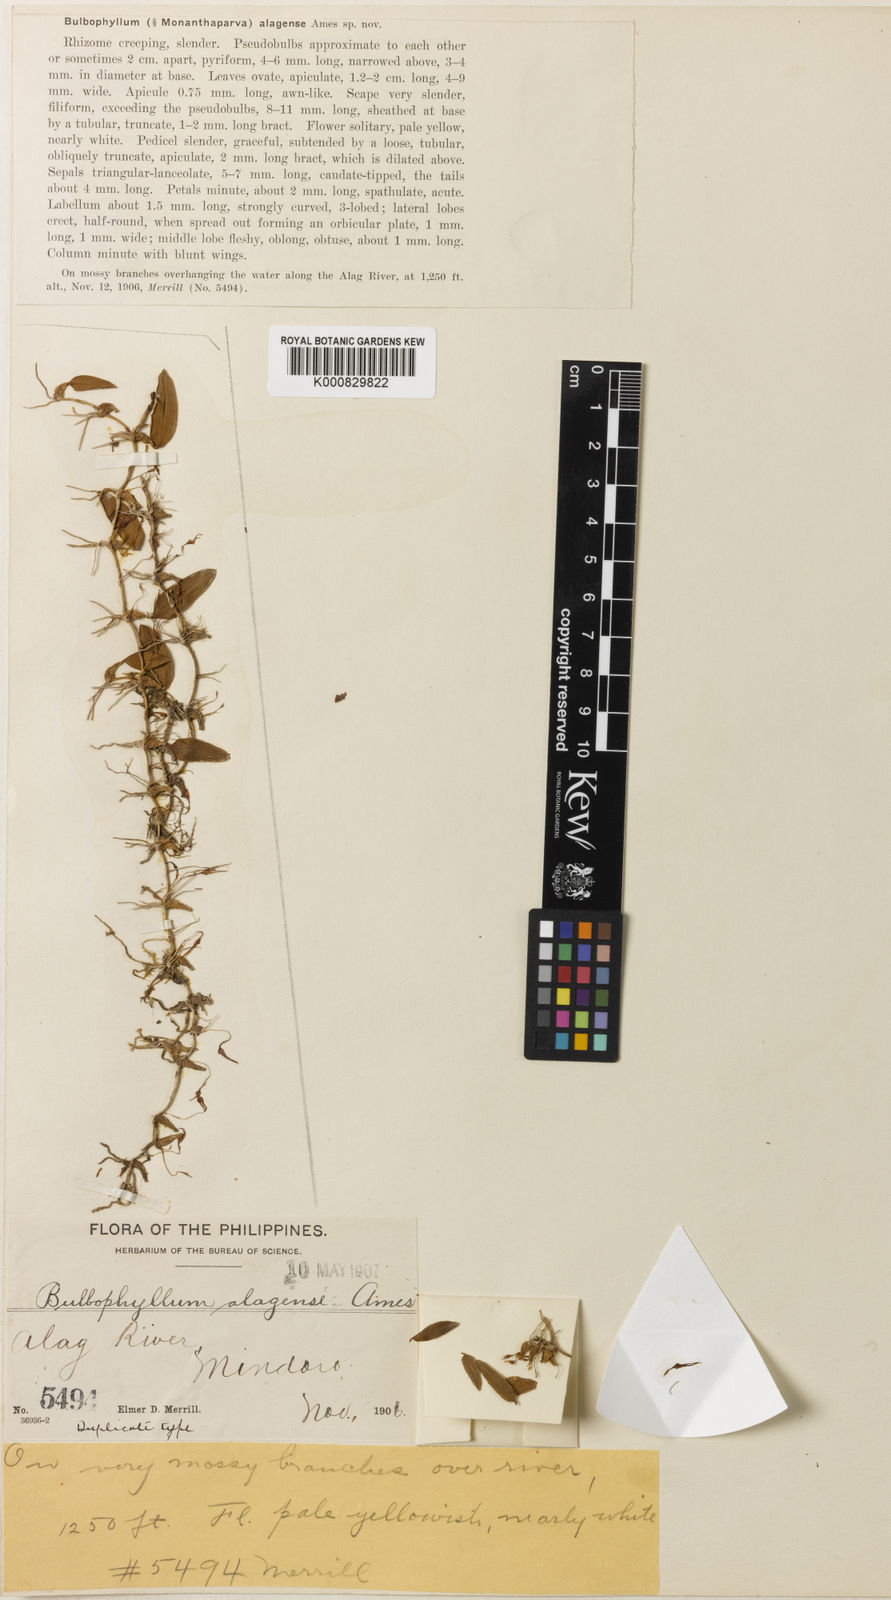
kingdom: Plantae
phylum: Tracheophyta
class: Liliopsida
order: Asparagales
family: Orchidaceae
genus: Bulbophyllum
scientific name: Bulbophyllum mucronatum
